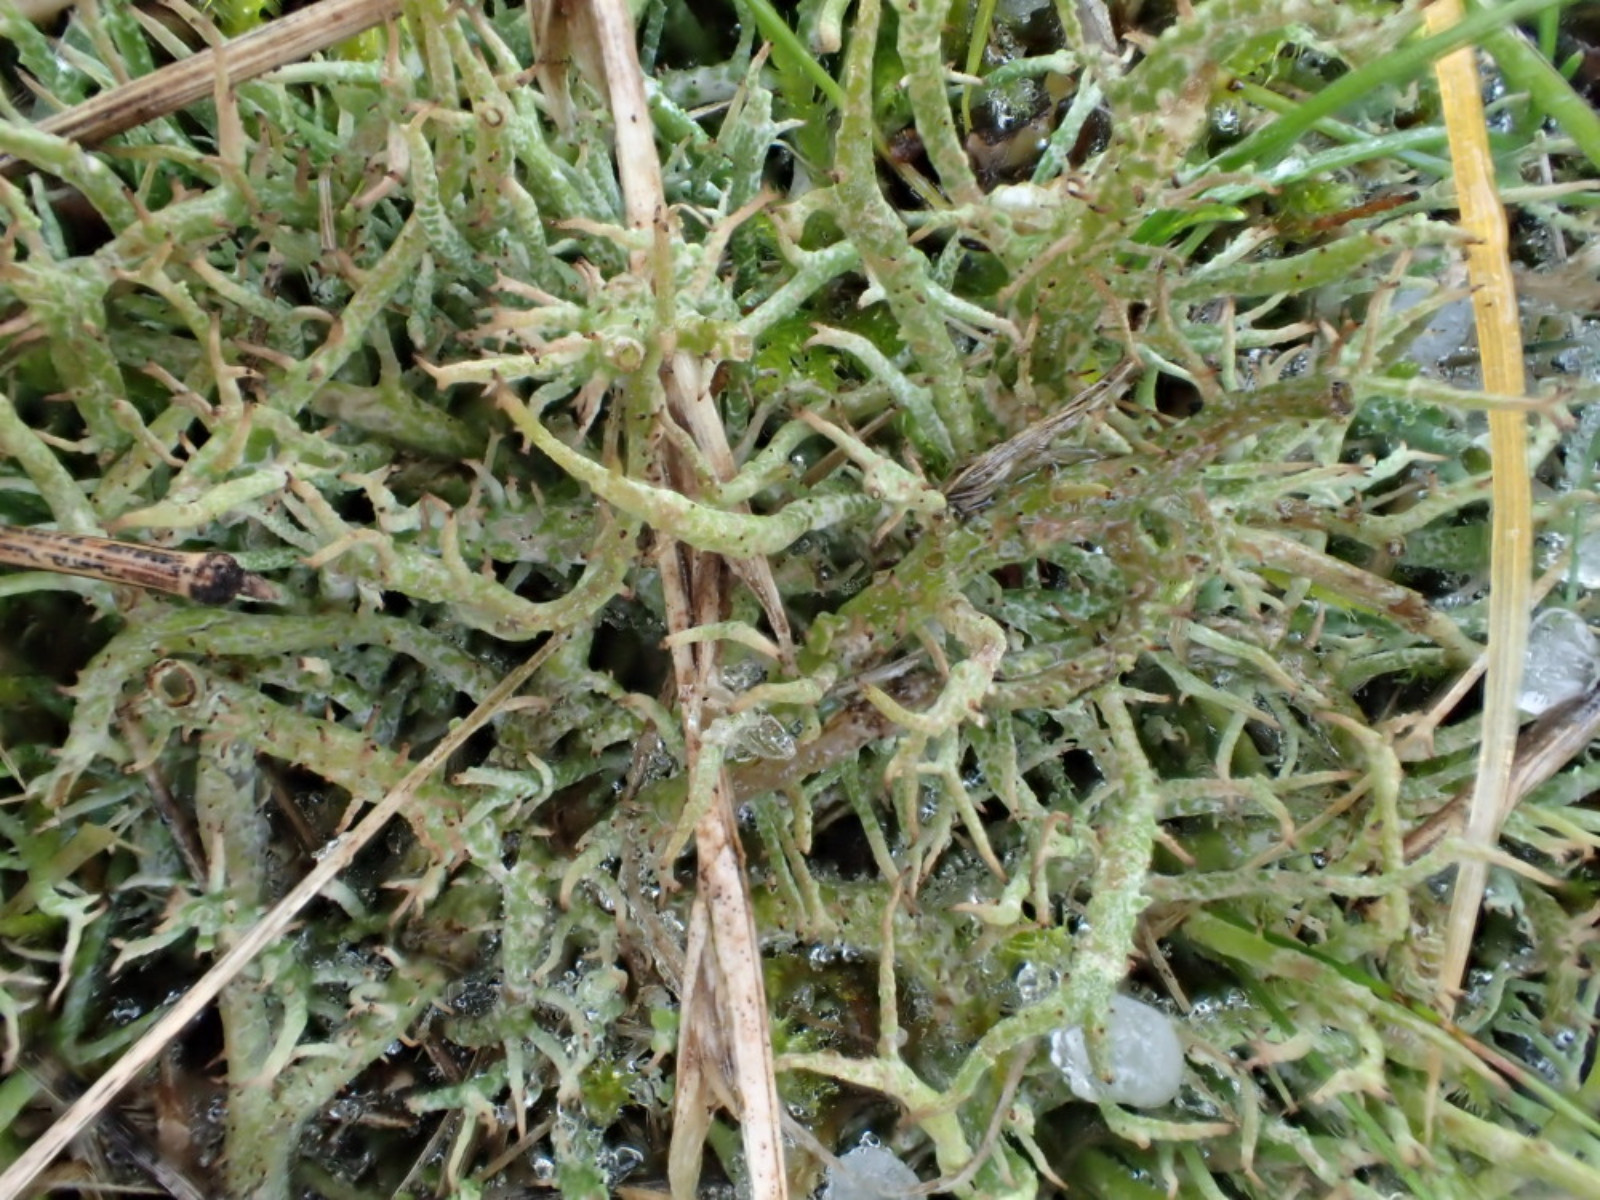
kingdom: Fungi
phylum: Ascomycota
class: Lecanoromycetes
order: Lecanorales
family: Cladoniaceae
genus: Cladonia
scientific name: Cladonia furcata
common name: kløftet bægerlav
